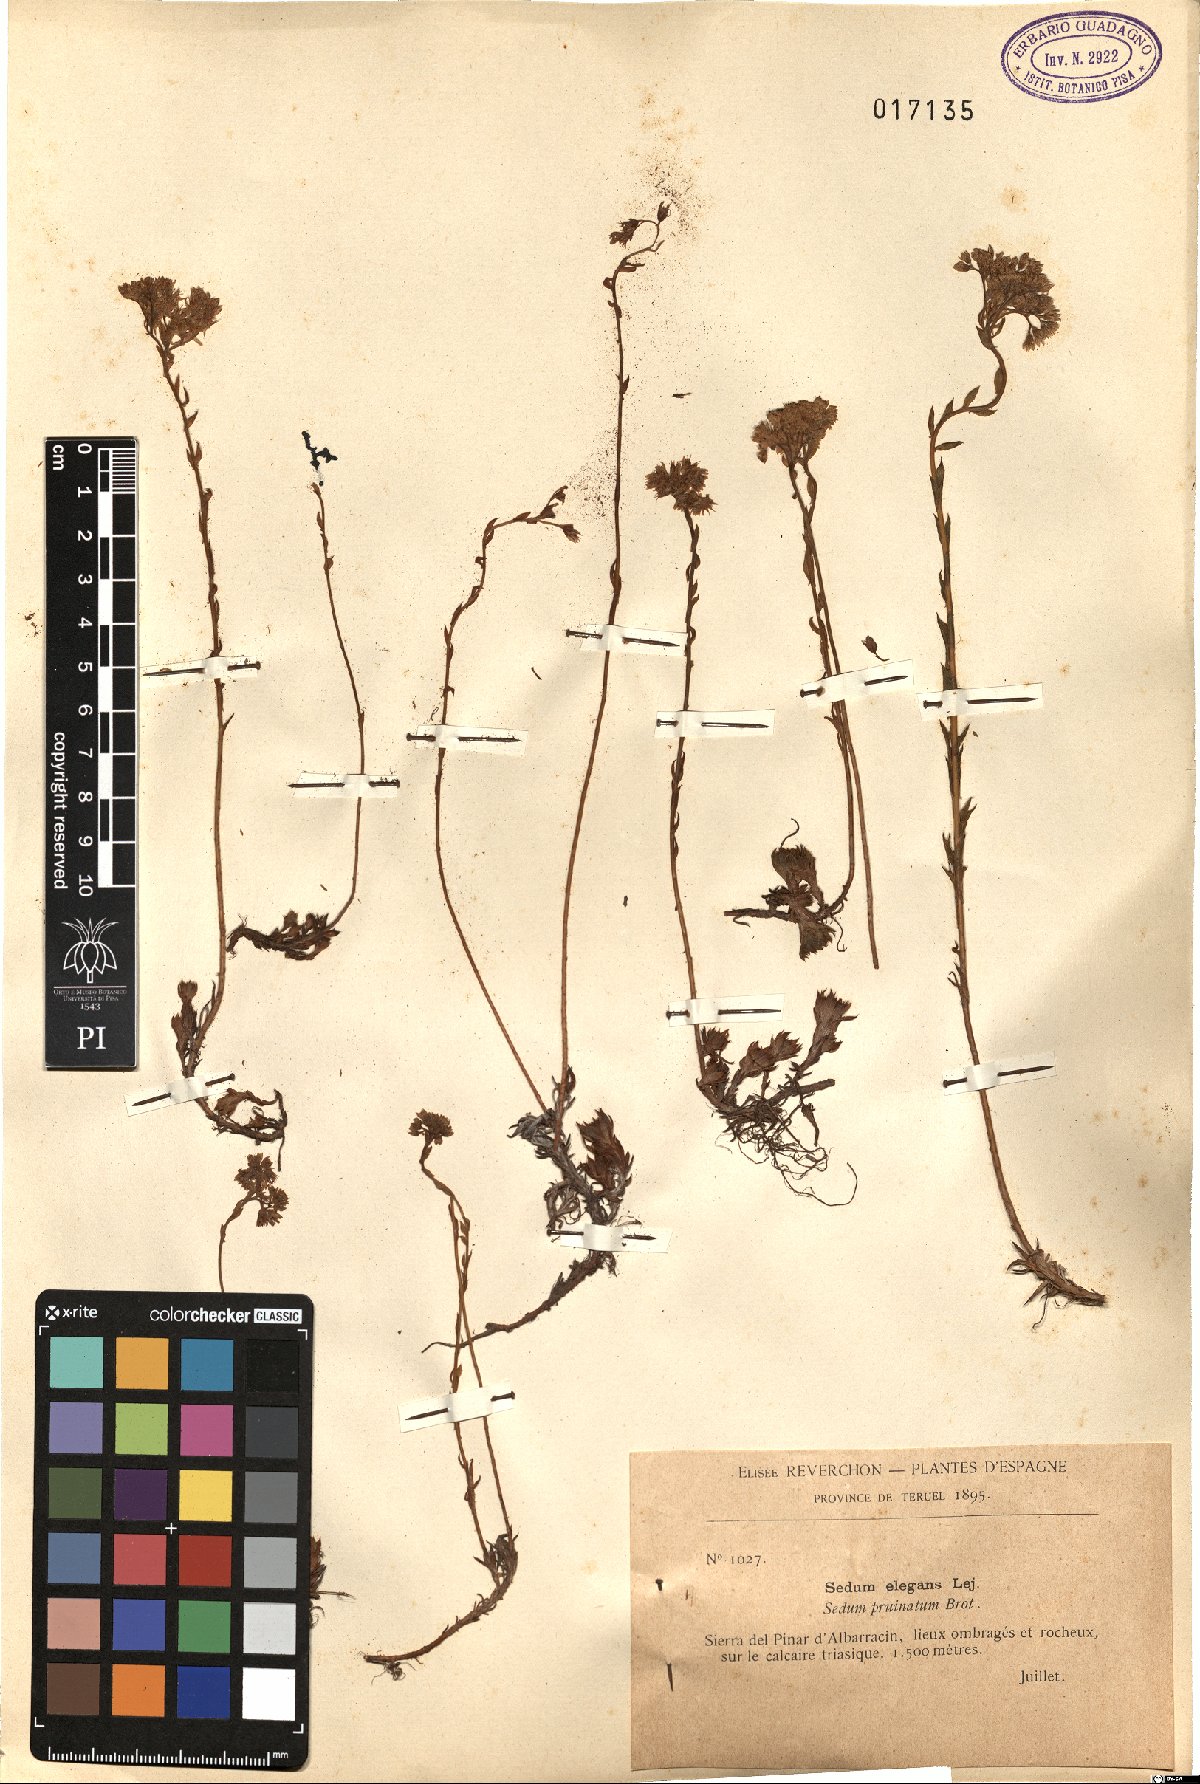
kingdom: Plantae
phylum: Tracheophyta
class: Magnoliopsida
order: Saxifragales
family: Crassulaceae
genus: Petrosedum
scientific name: Petrosedum forsterianum
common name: Forster's stonecrop
